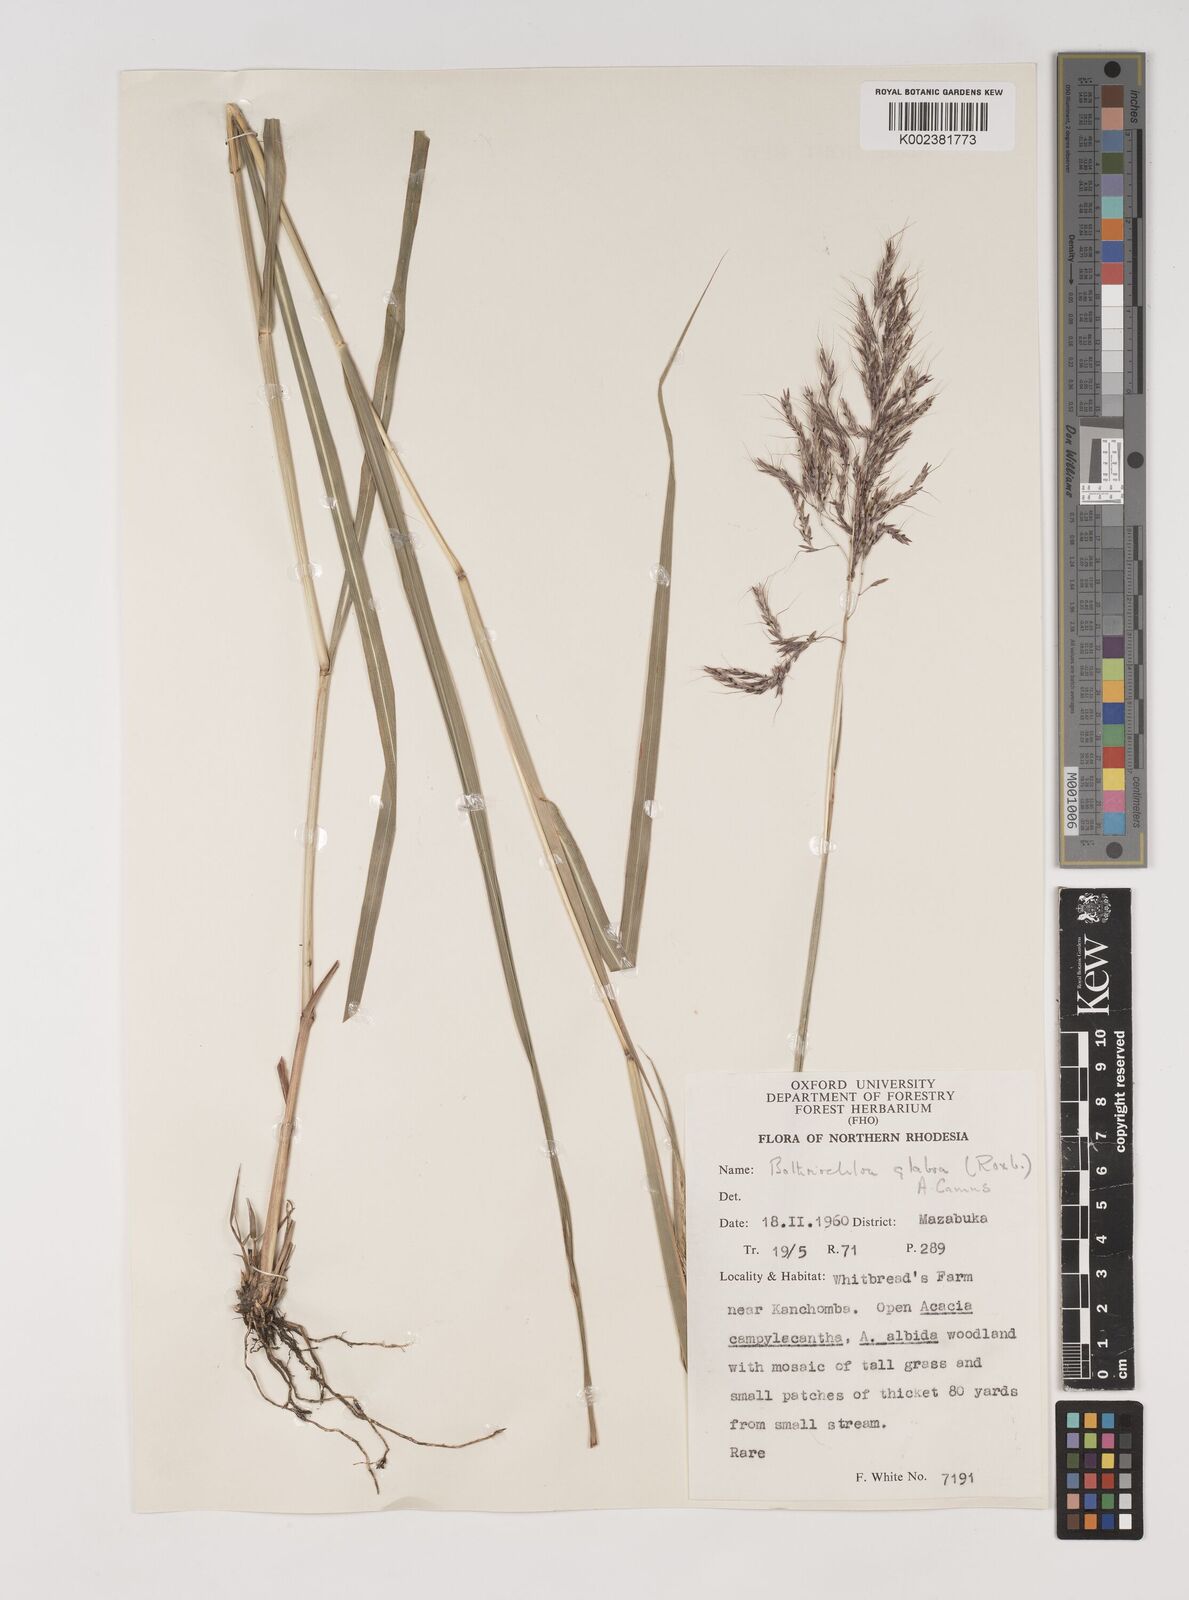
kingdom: Plantae
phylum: Tracheophyta
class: Liliopsida
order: Poales
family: Poaceae
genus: Bothriochloa
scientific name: Bothriochloa bladhii
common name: Caucasian bluestem
